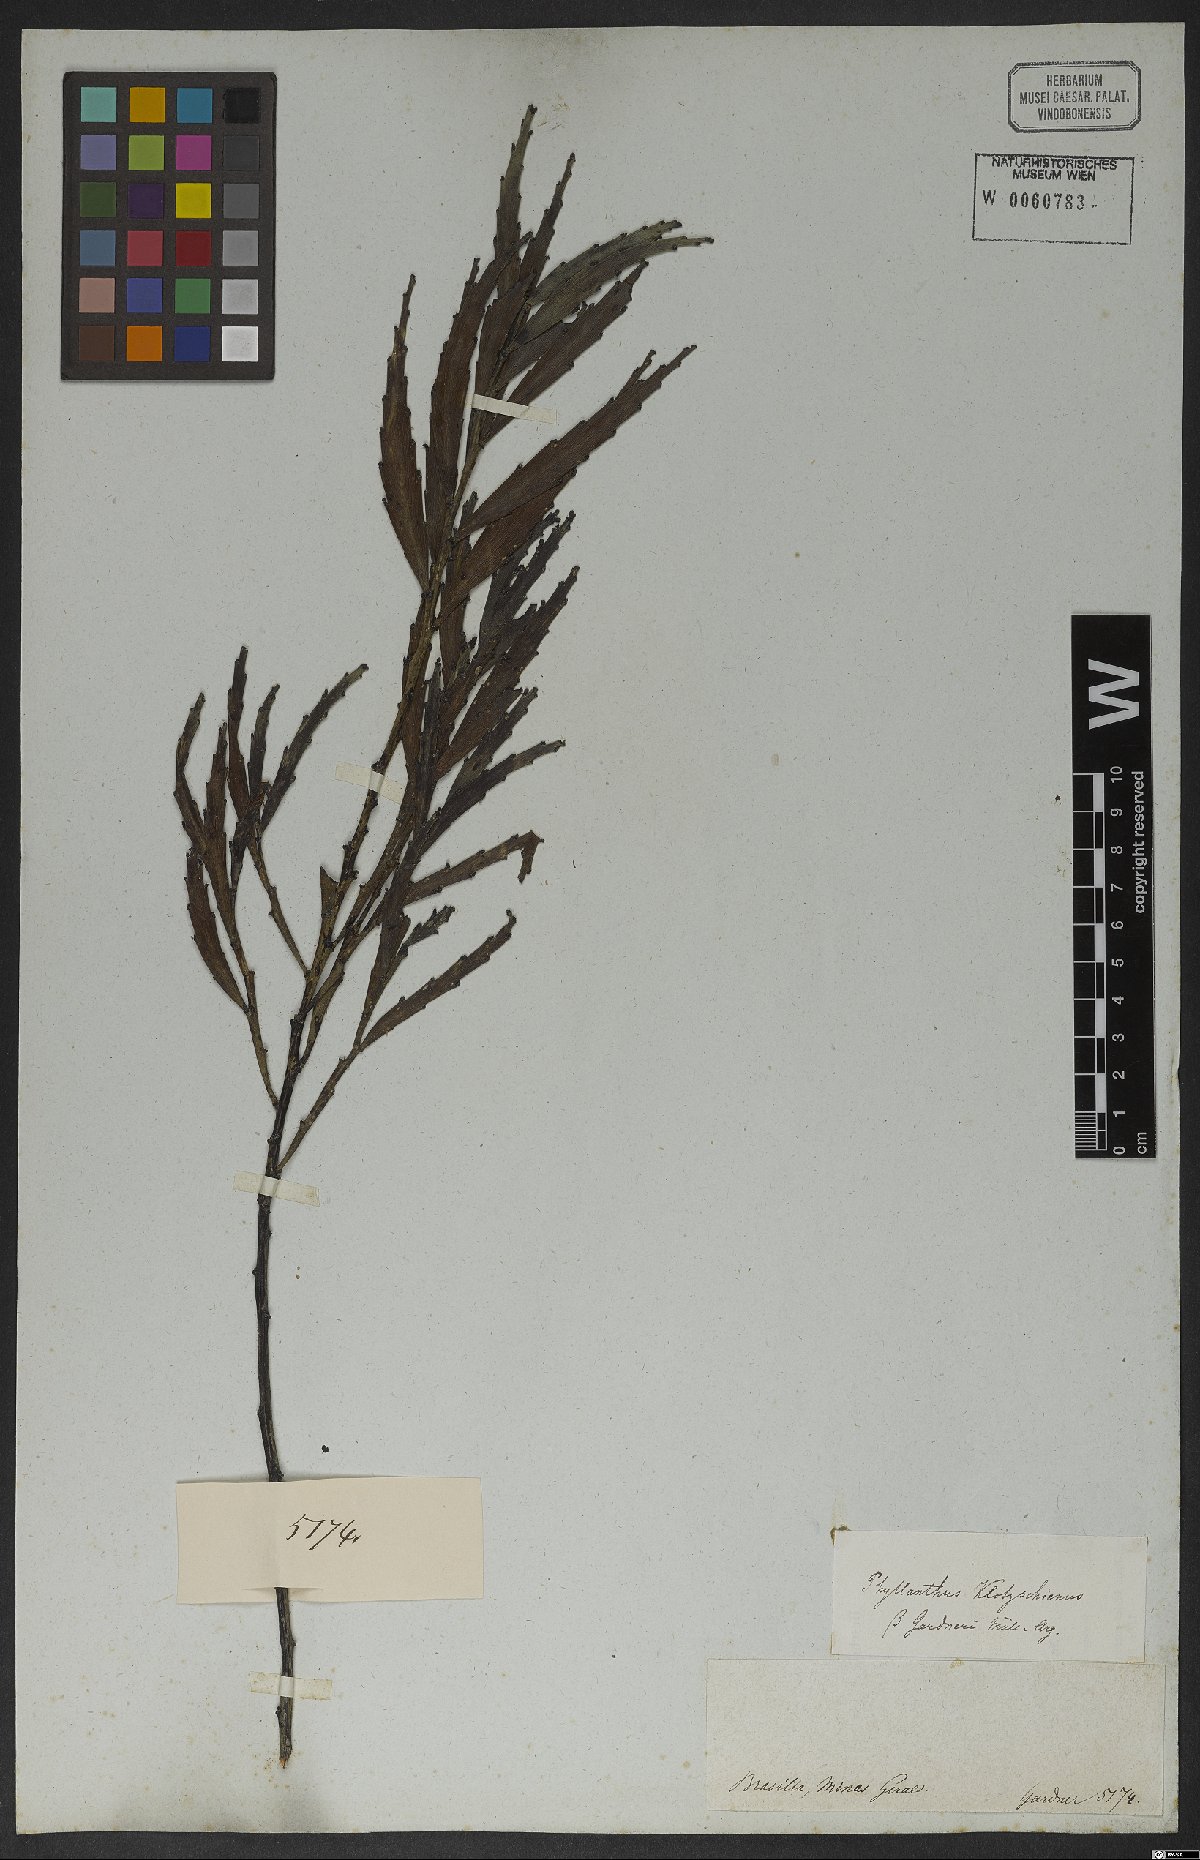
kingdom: Plantae
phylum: Tracheophyta
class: Magnoliopsida
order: Malpighiales
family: Phyllanthaceae
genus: Phyllanthus
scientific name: Phyllanthus robustus
